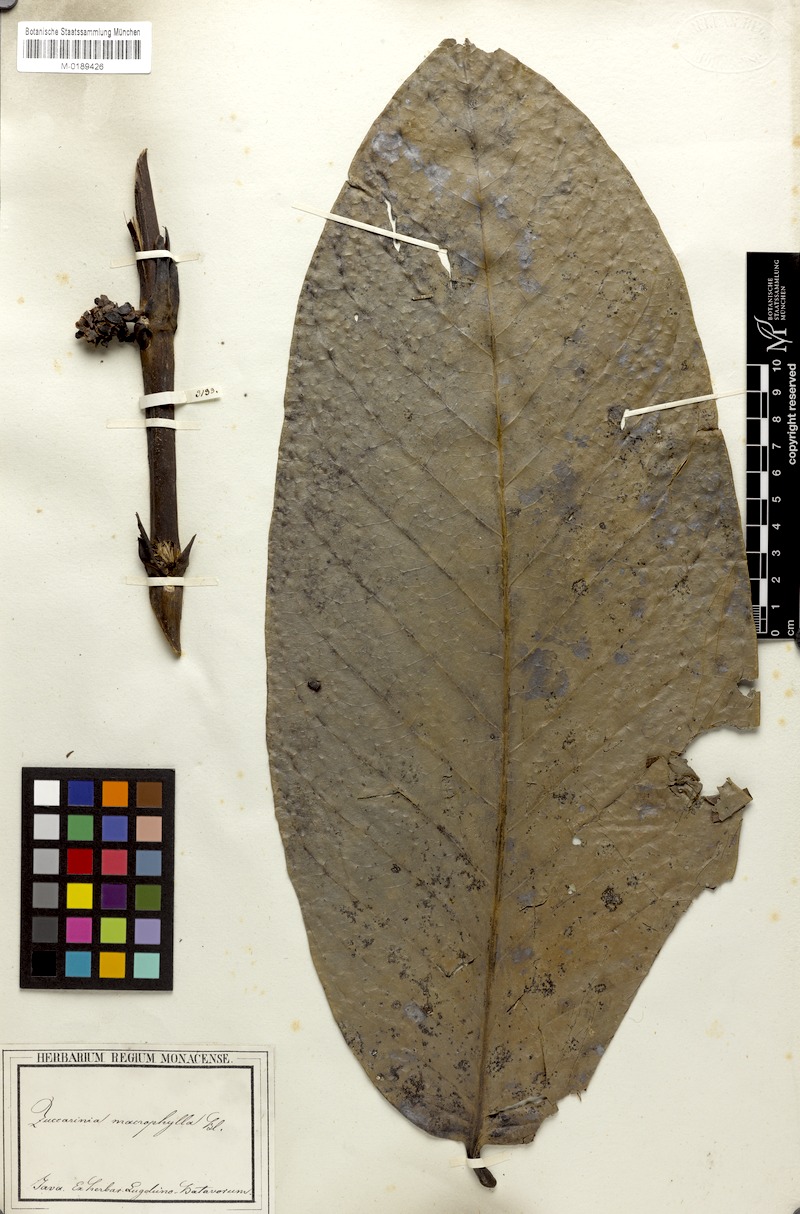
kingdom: Plantae
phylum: Tracheophyta
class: Magnoliopsida
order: Gentianales
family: Rubiaceae
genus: Zuccarinia
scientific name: Zuccarinia macrophylla
